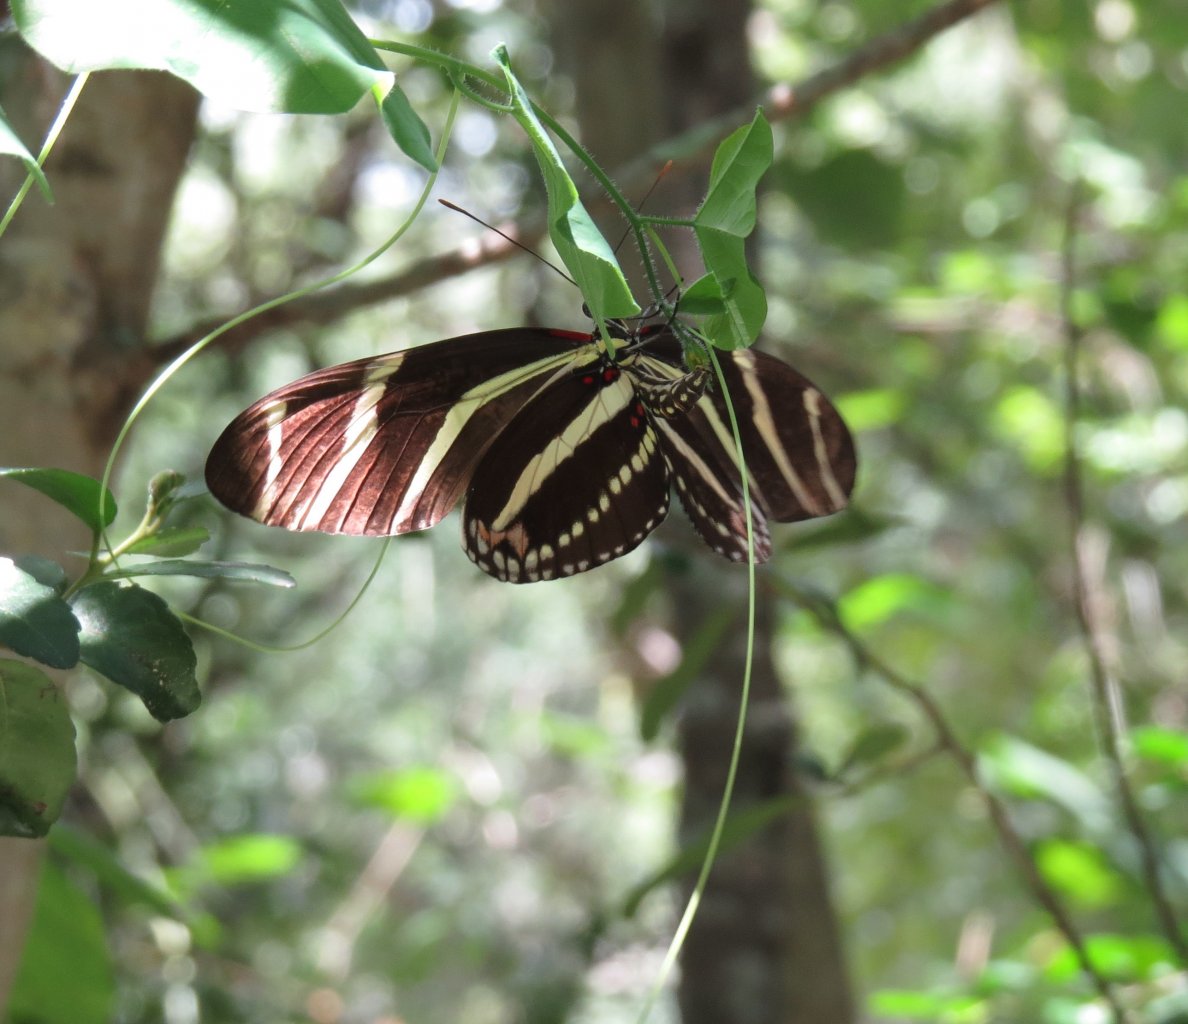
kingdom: Animalia
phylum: Arthropoda
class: Insecta
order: Lepidoptera
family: Nymphalidae
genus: Heliconius
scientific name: Heliconius charithonia
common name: Zebra Longwing
